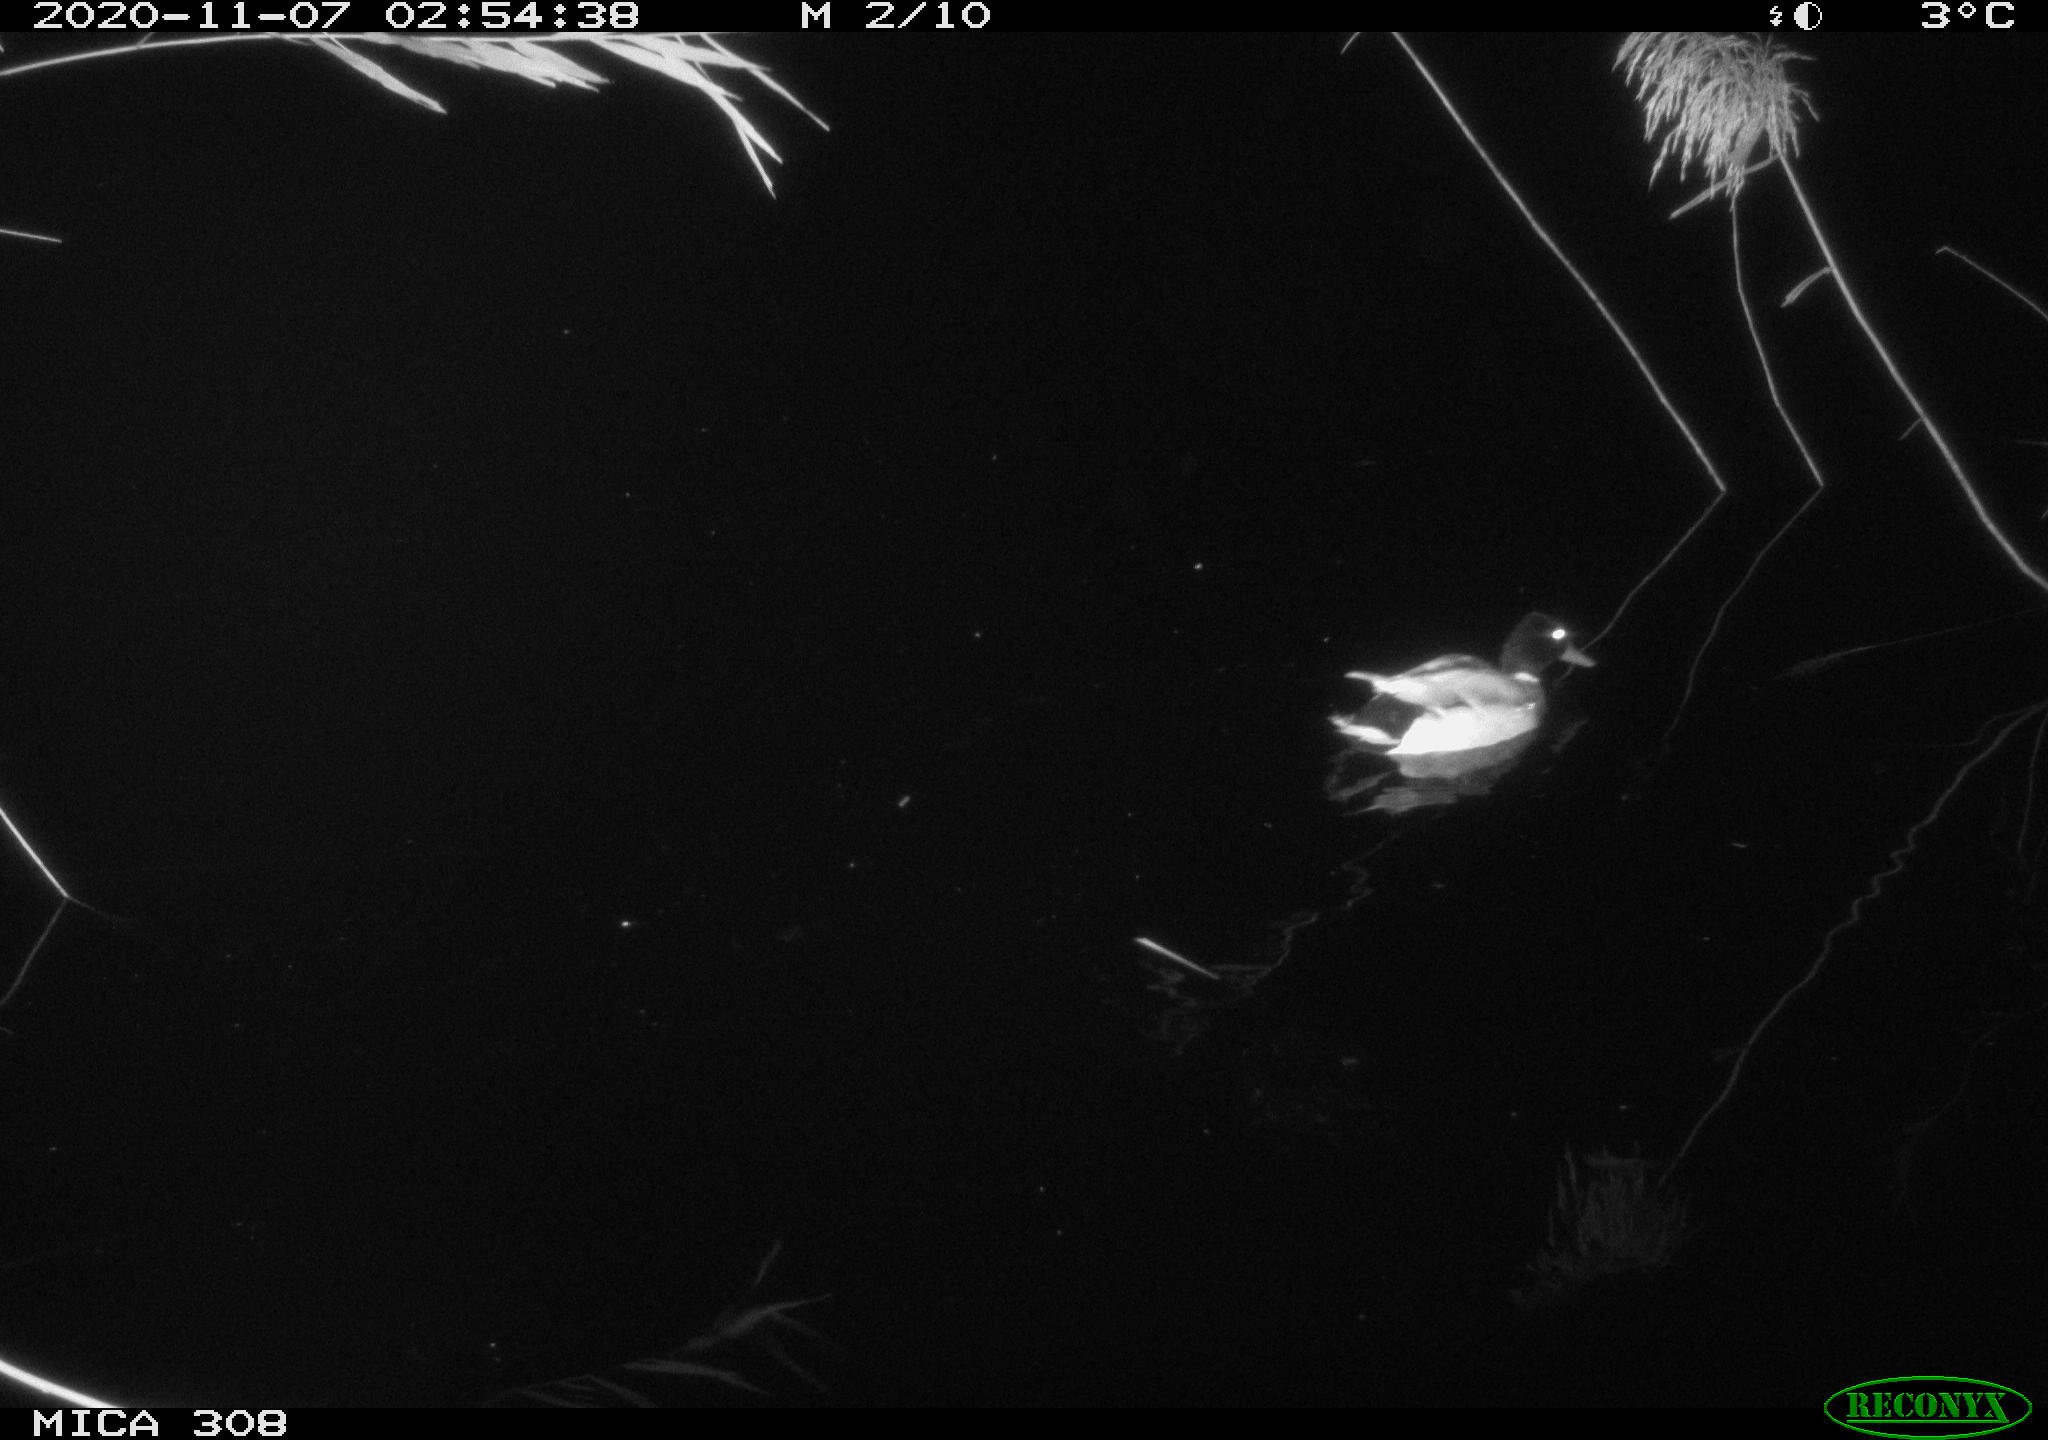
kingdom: Animalia
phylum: Chordata
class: Aves
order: Anseriformes
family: Anatidae
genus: Anas
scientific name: Anas platyrhynchos
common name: Mallard
